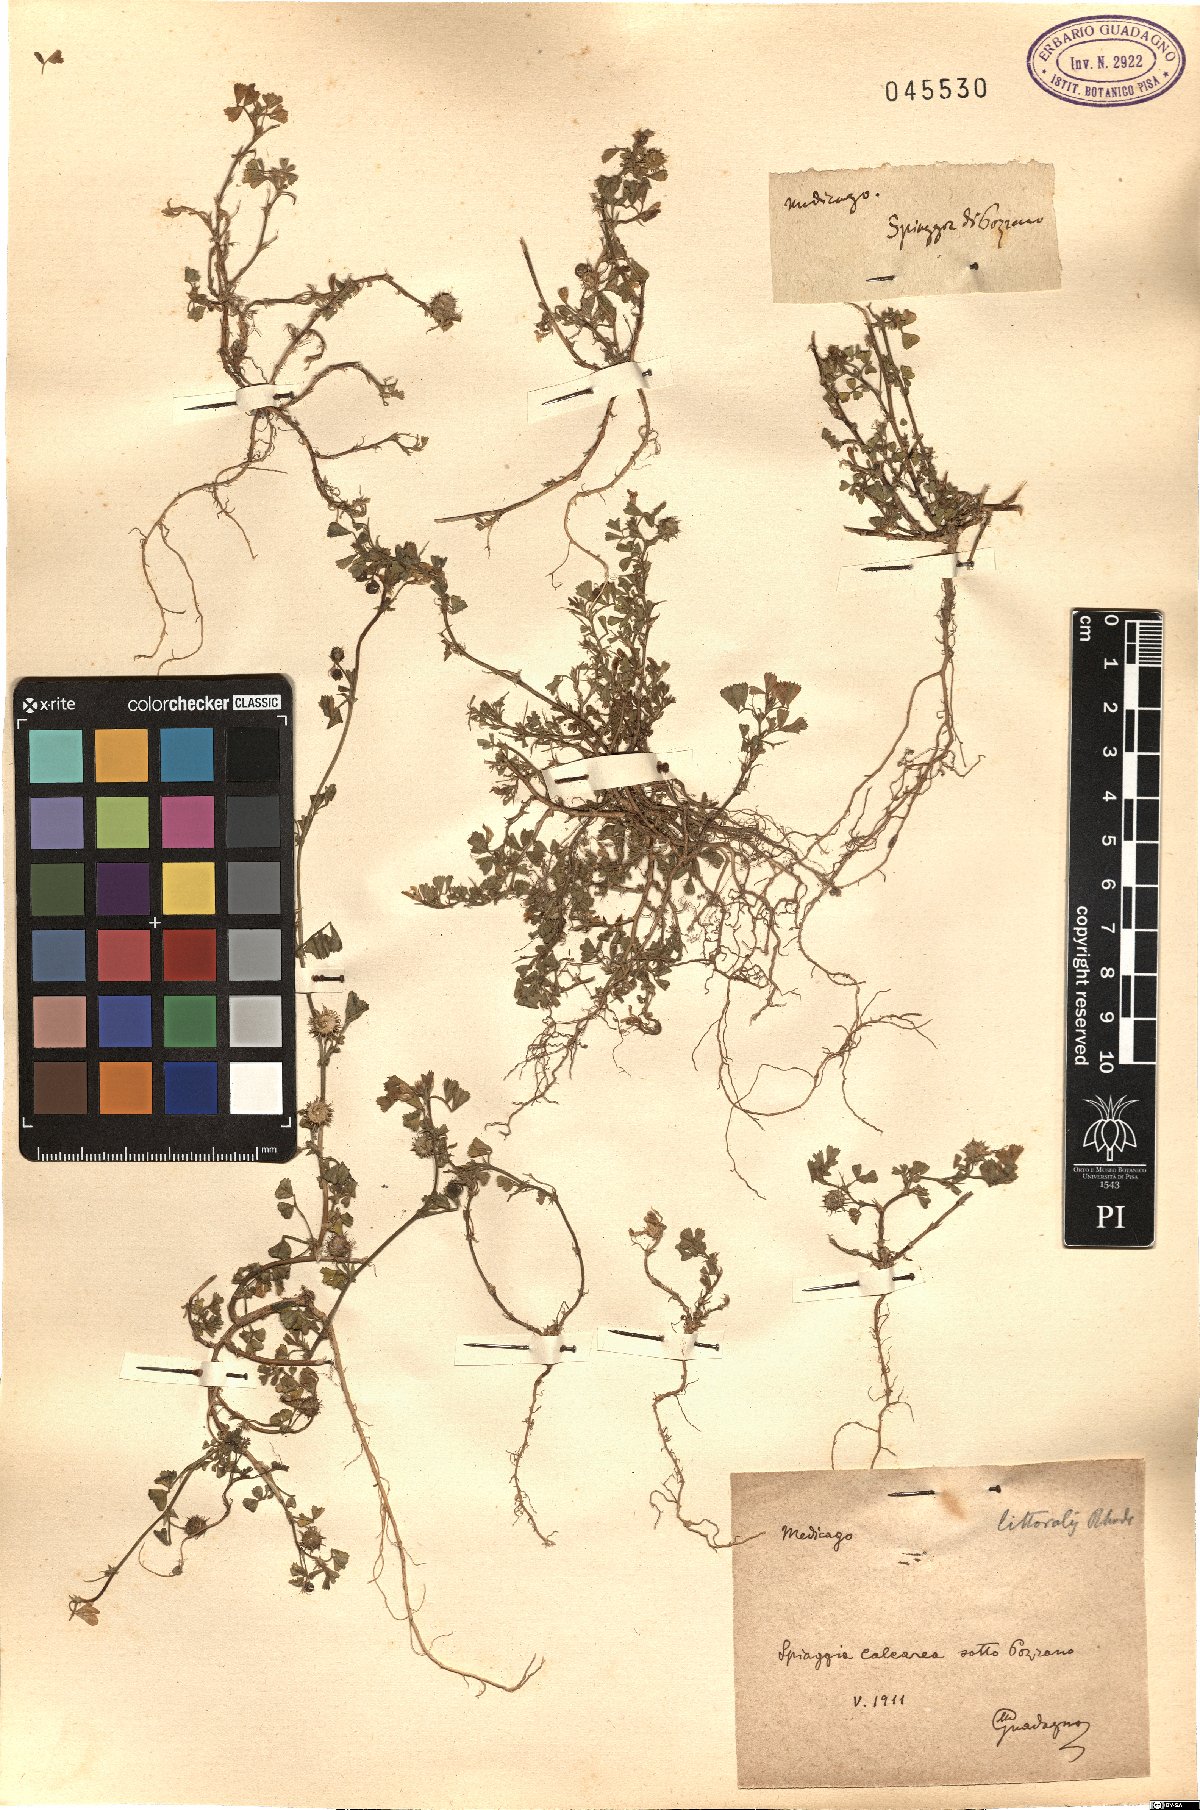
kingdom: Plantae
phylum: Tracheophyta
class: Magnoliopsida
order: Fabales
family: Fabaceae
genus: Medicago
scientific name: Medicago littoralis
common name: Shore medick
